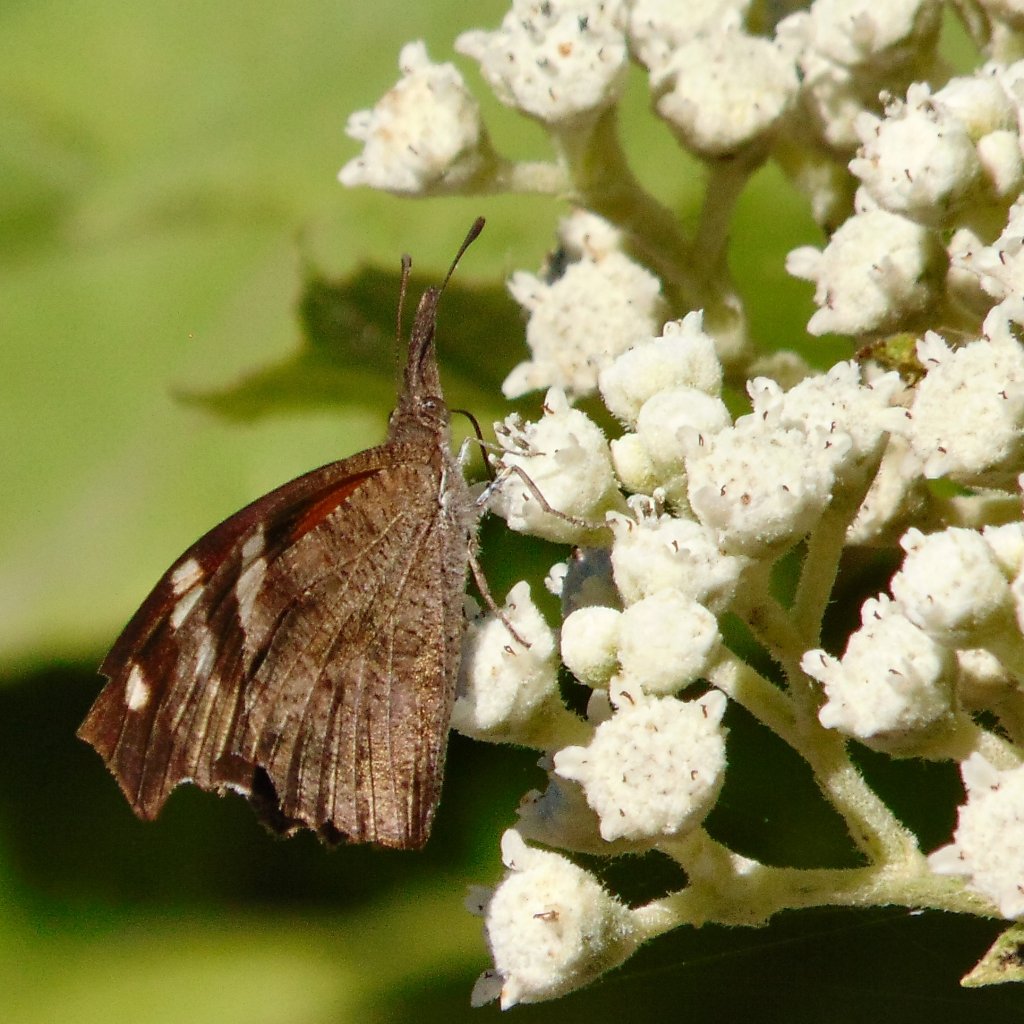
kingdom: Animalia
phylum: Arthropoda
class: Insecta
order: Lepidoptera
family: Nymphalidae
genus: Libytheana
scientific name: Libytheana carinenta
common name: American Snout
